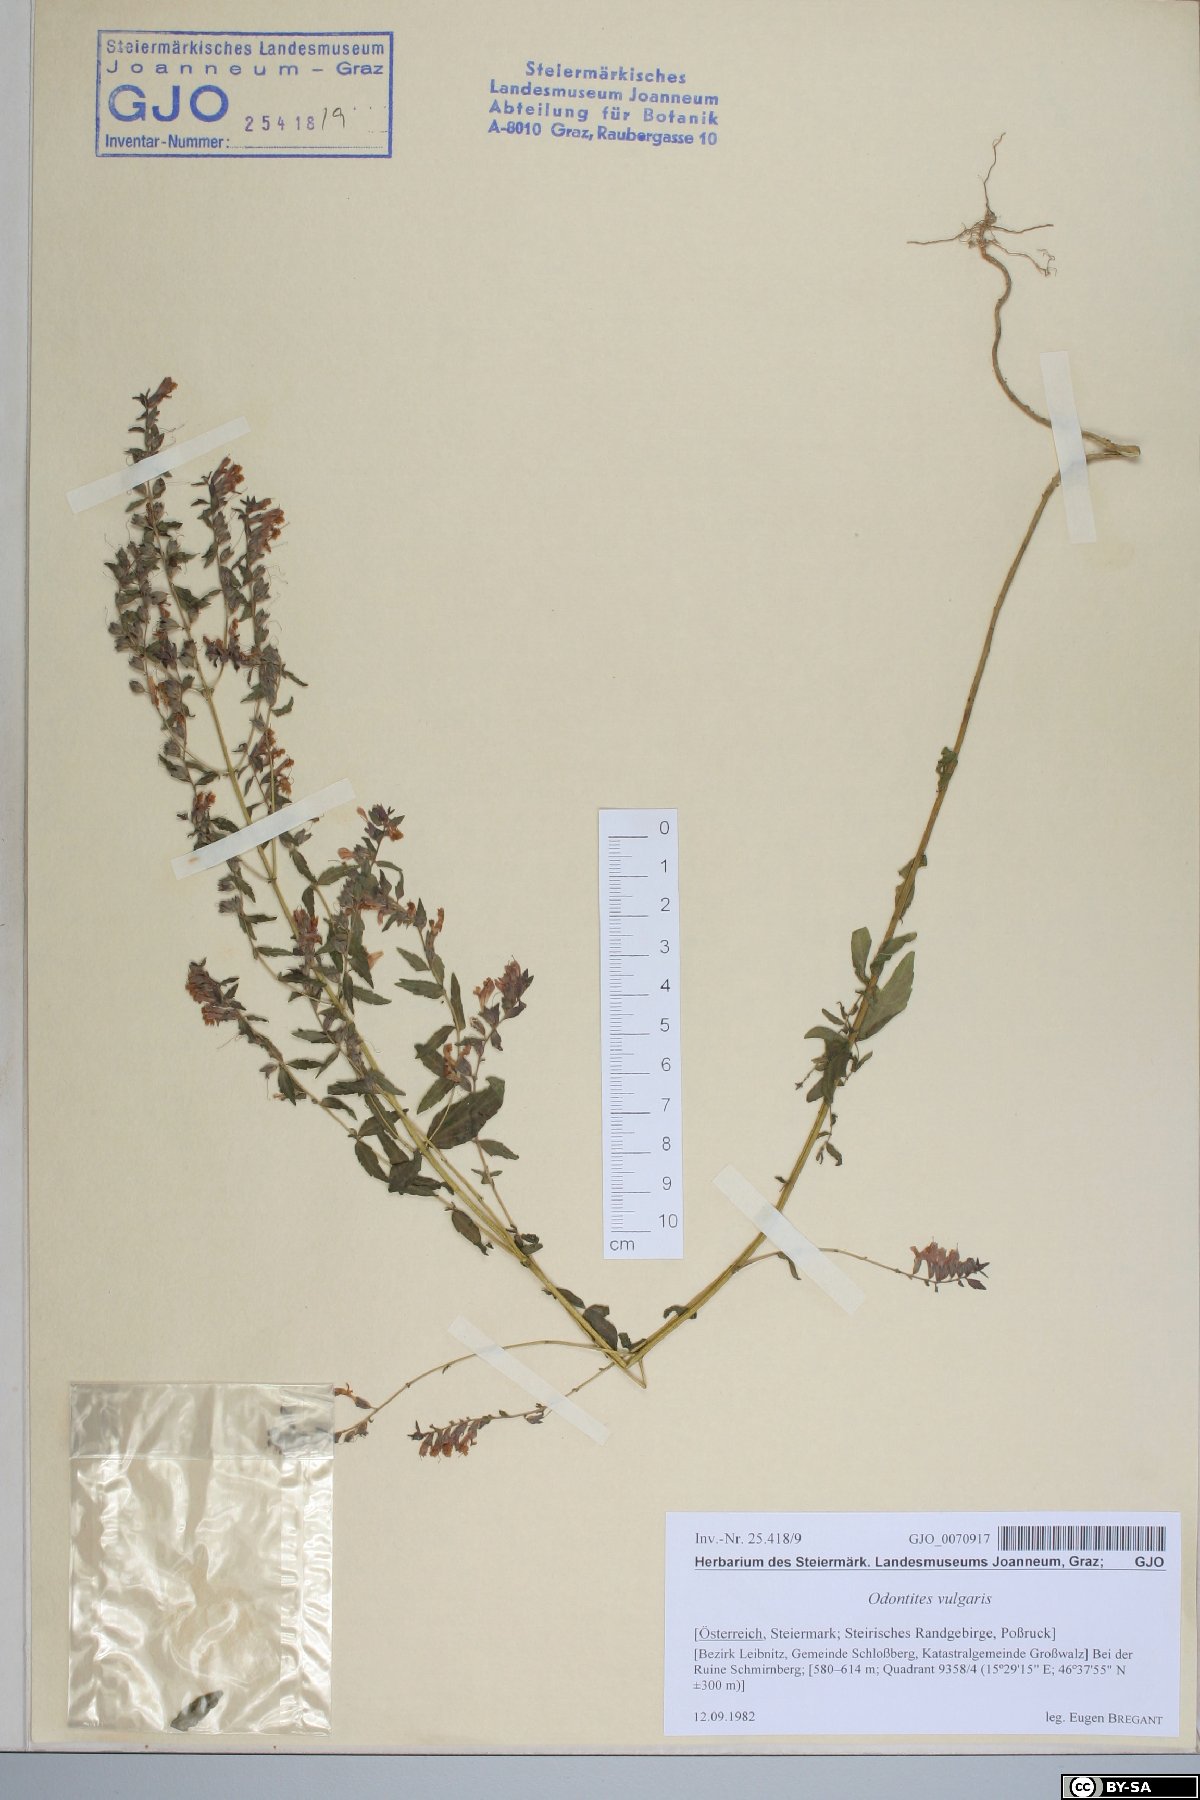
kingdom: Plantae
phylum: Tracheophyta
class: Magnoliopsida
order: Lamiales
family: Orobanchaceae
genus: Odontites
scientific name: Odontites vulgaris
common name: Broomrape
